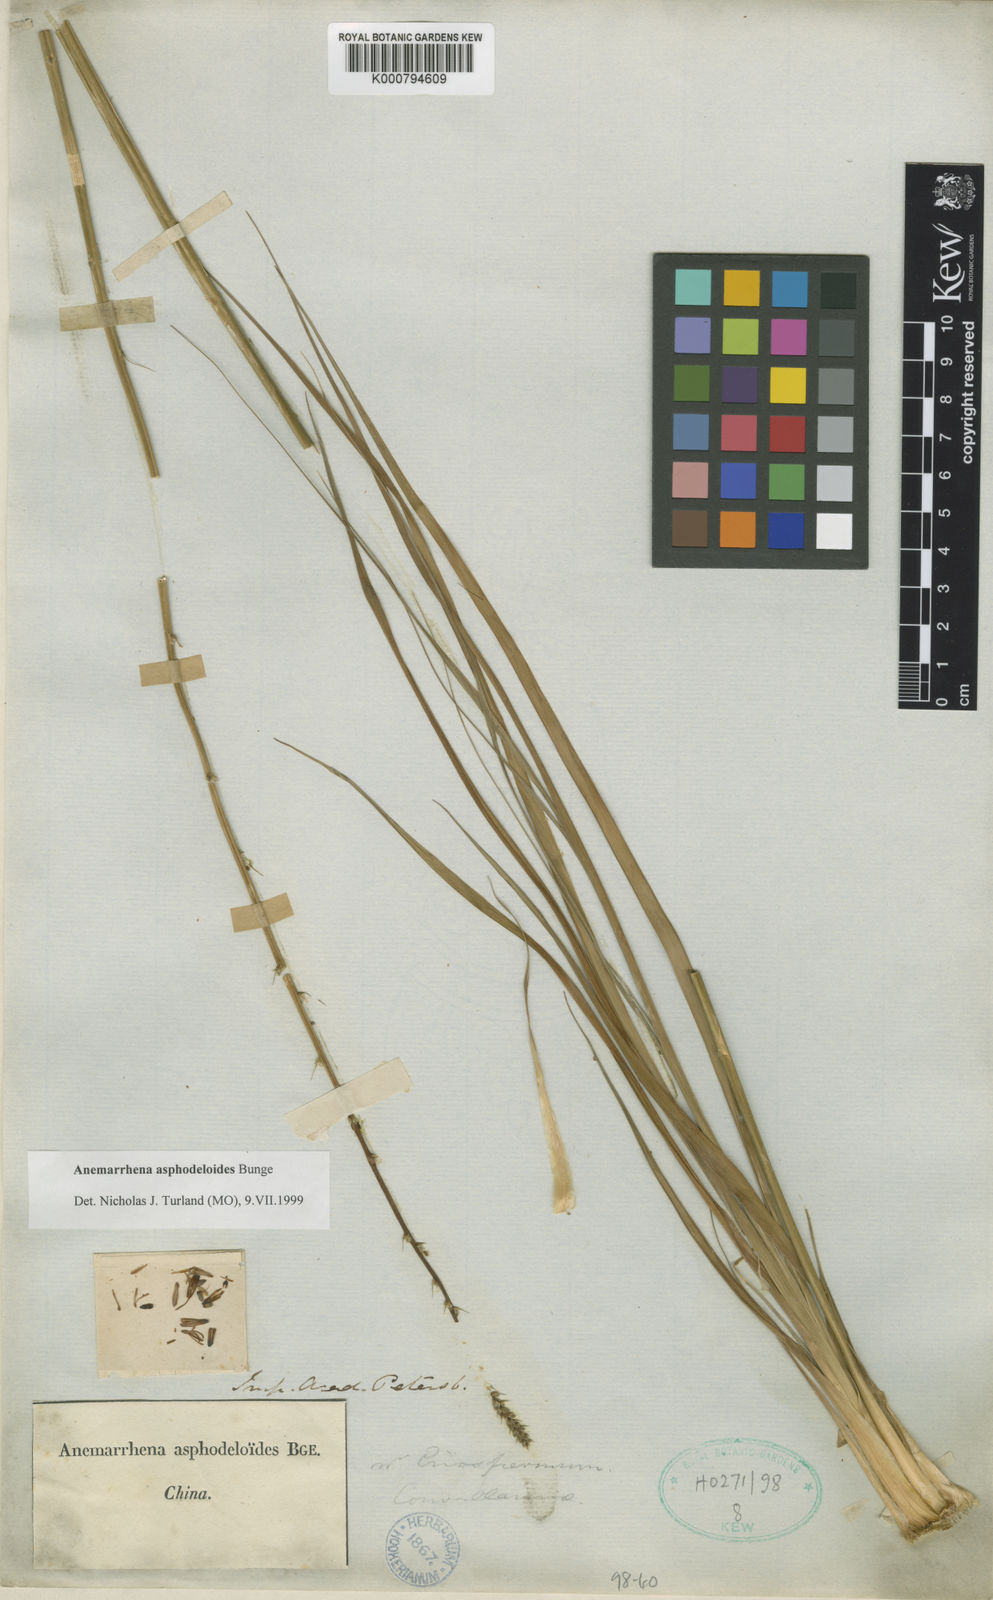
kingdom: Plantae
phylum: Tracheophyta
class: Liliopsida
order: Asparagales
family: Asparagaceae
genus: Anemarrhena
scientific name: Anemarrhena asphodeloides
